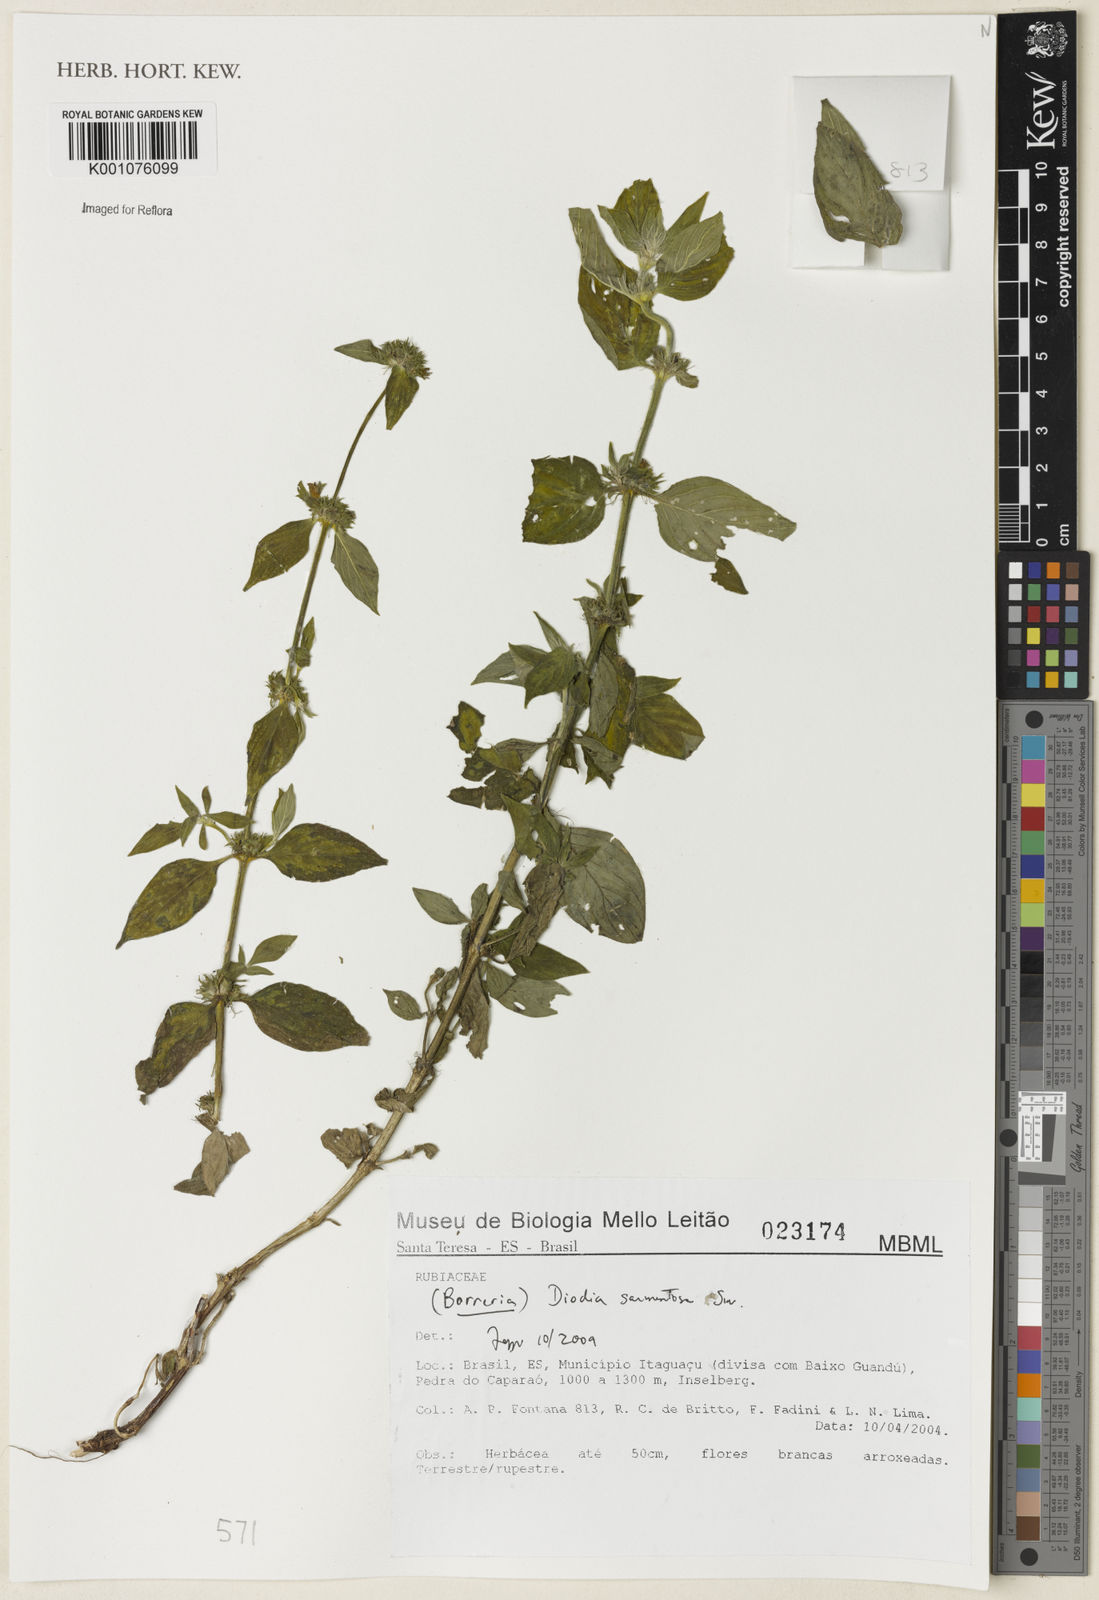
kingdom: Plantae
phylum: Tracheophyta
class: Magnoliopsida
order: Gentianales
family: Rubiaceae
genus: Hexasepalum
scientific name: Hexasepalum sarmentosum
